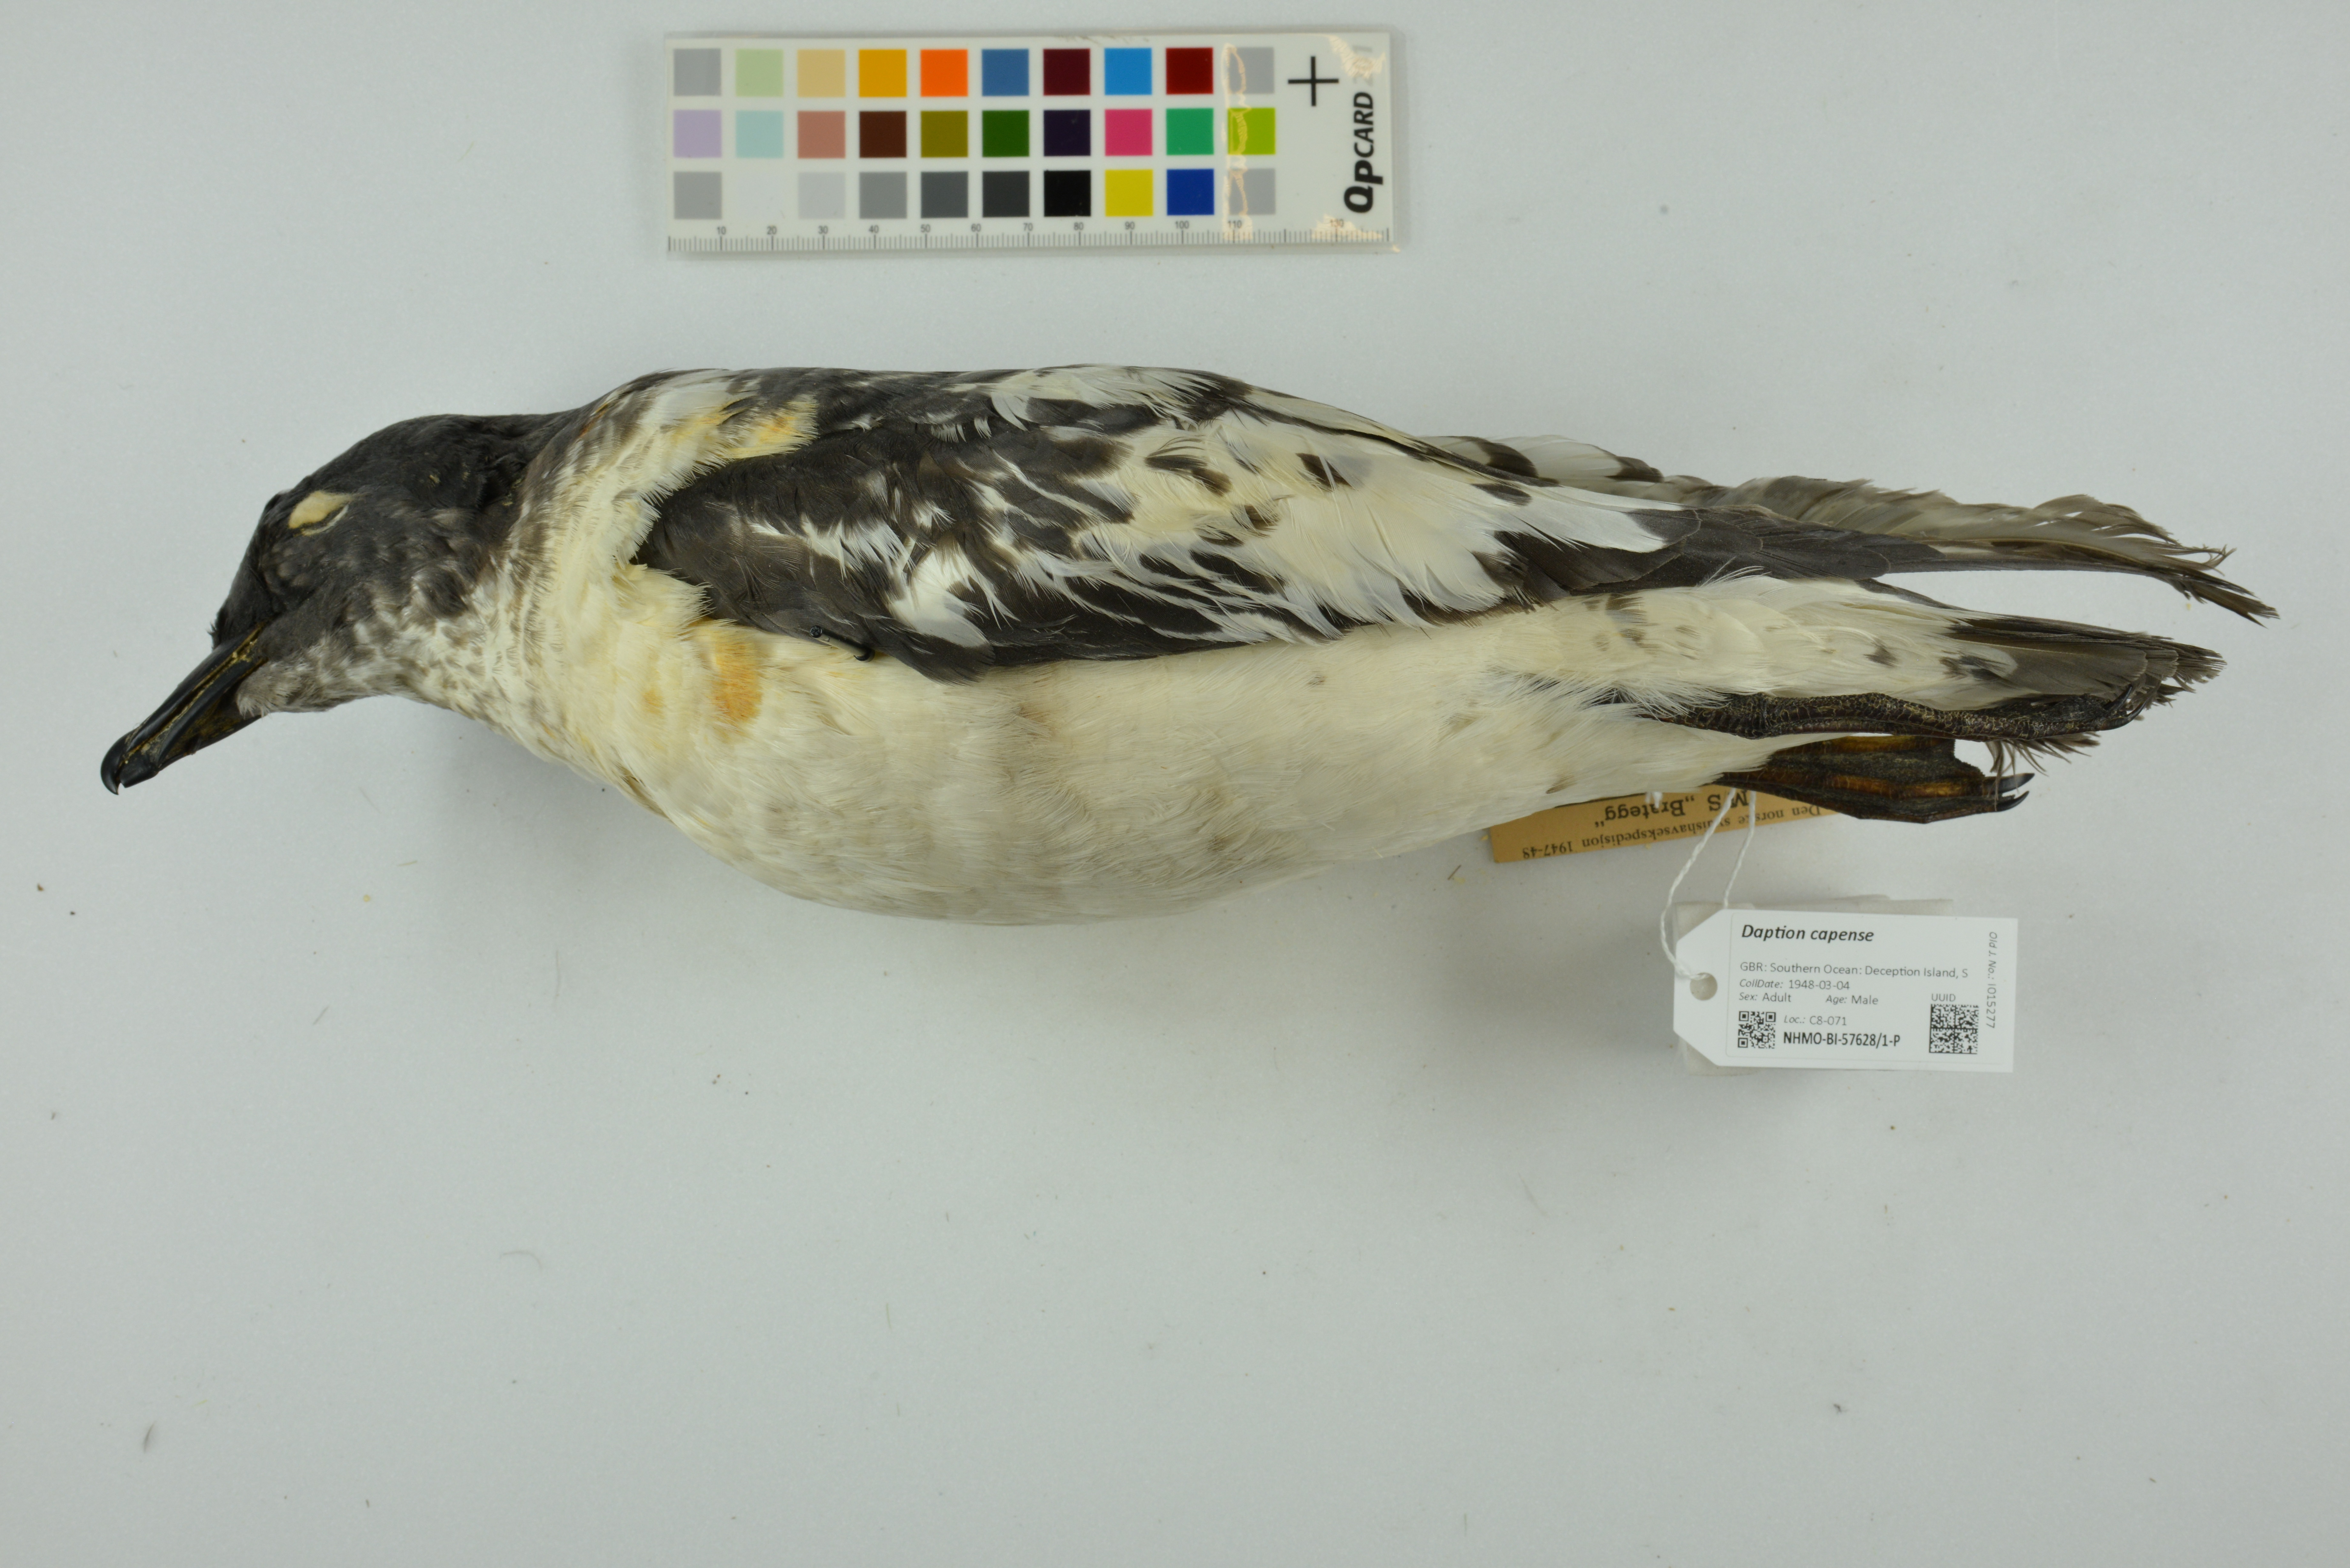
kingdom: Animalia
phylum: Chordata
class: Aves
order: Procellariiformes
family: Procellariidae
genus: Daption
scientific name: Daption capense
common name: Cape petrel
